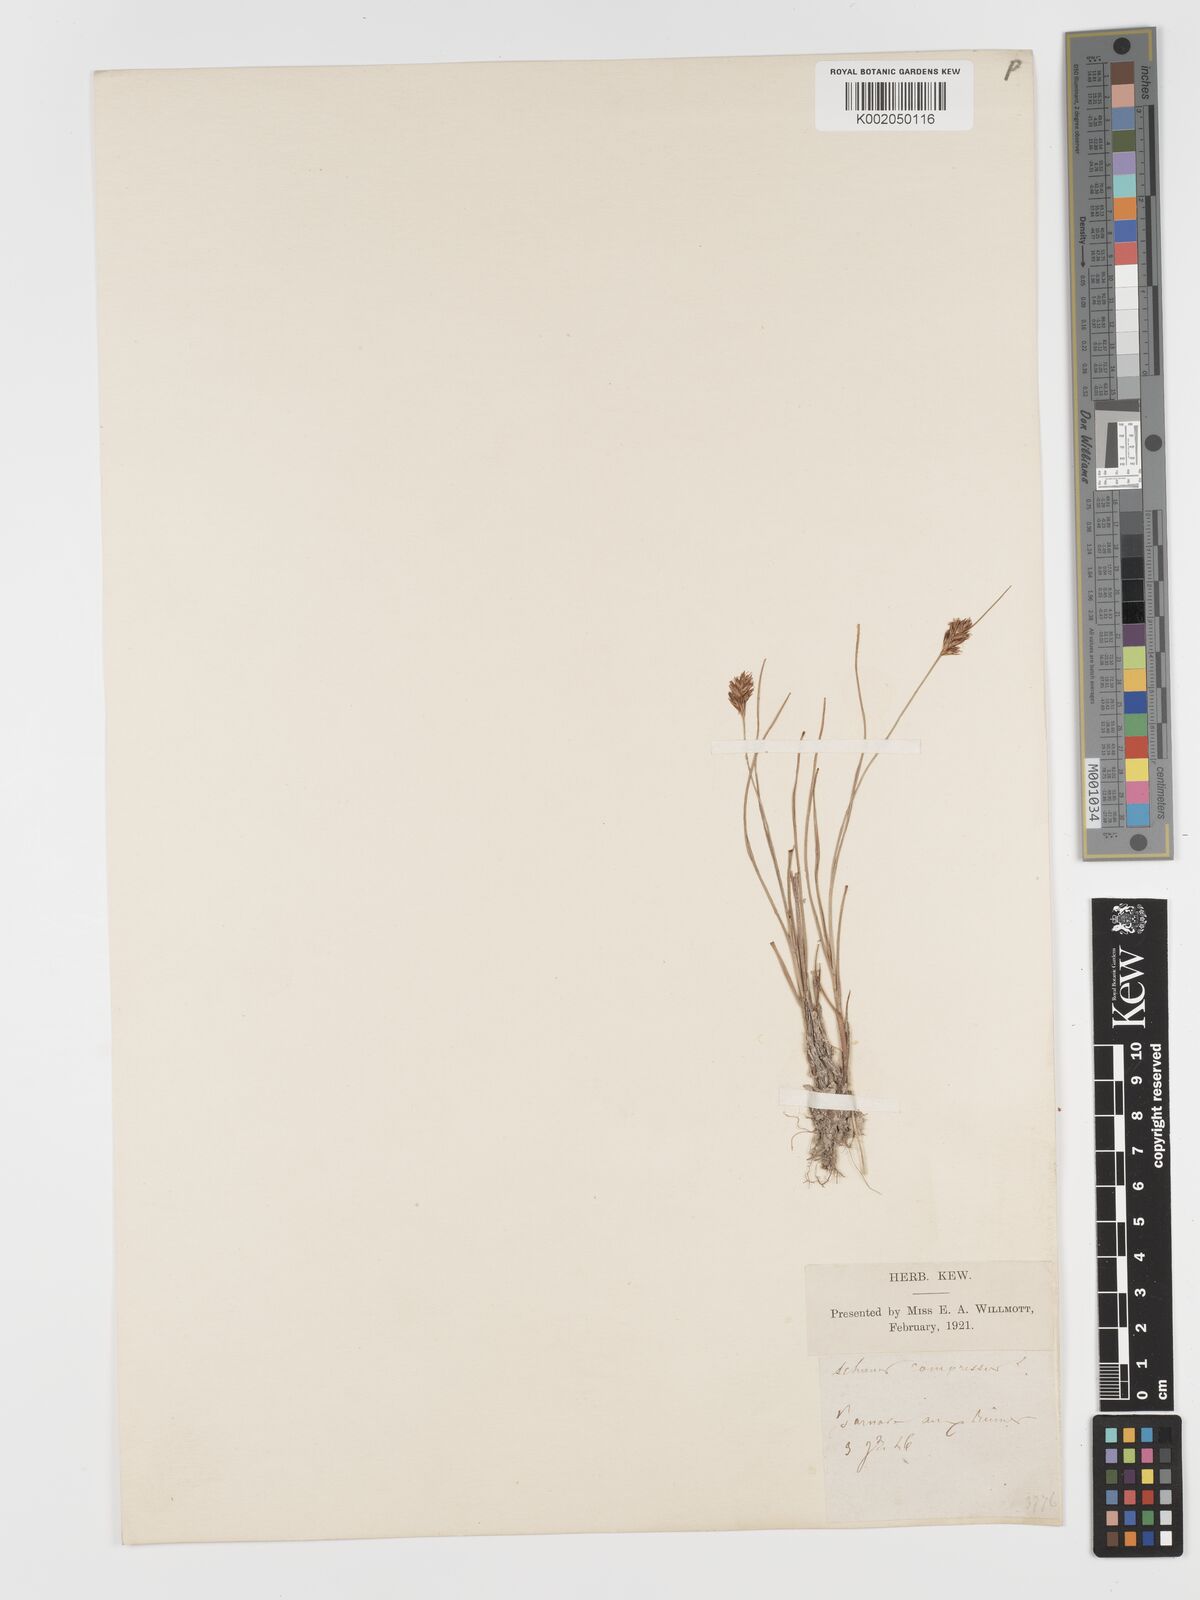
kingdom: Plantae
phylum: Tracheophyta
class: Liliopsida
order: Poales
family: Cyperaceae
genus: Blysmus
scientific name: Blysmus compressus
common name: Flat-sedge
